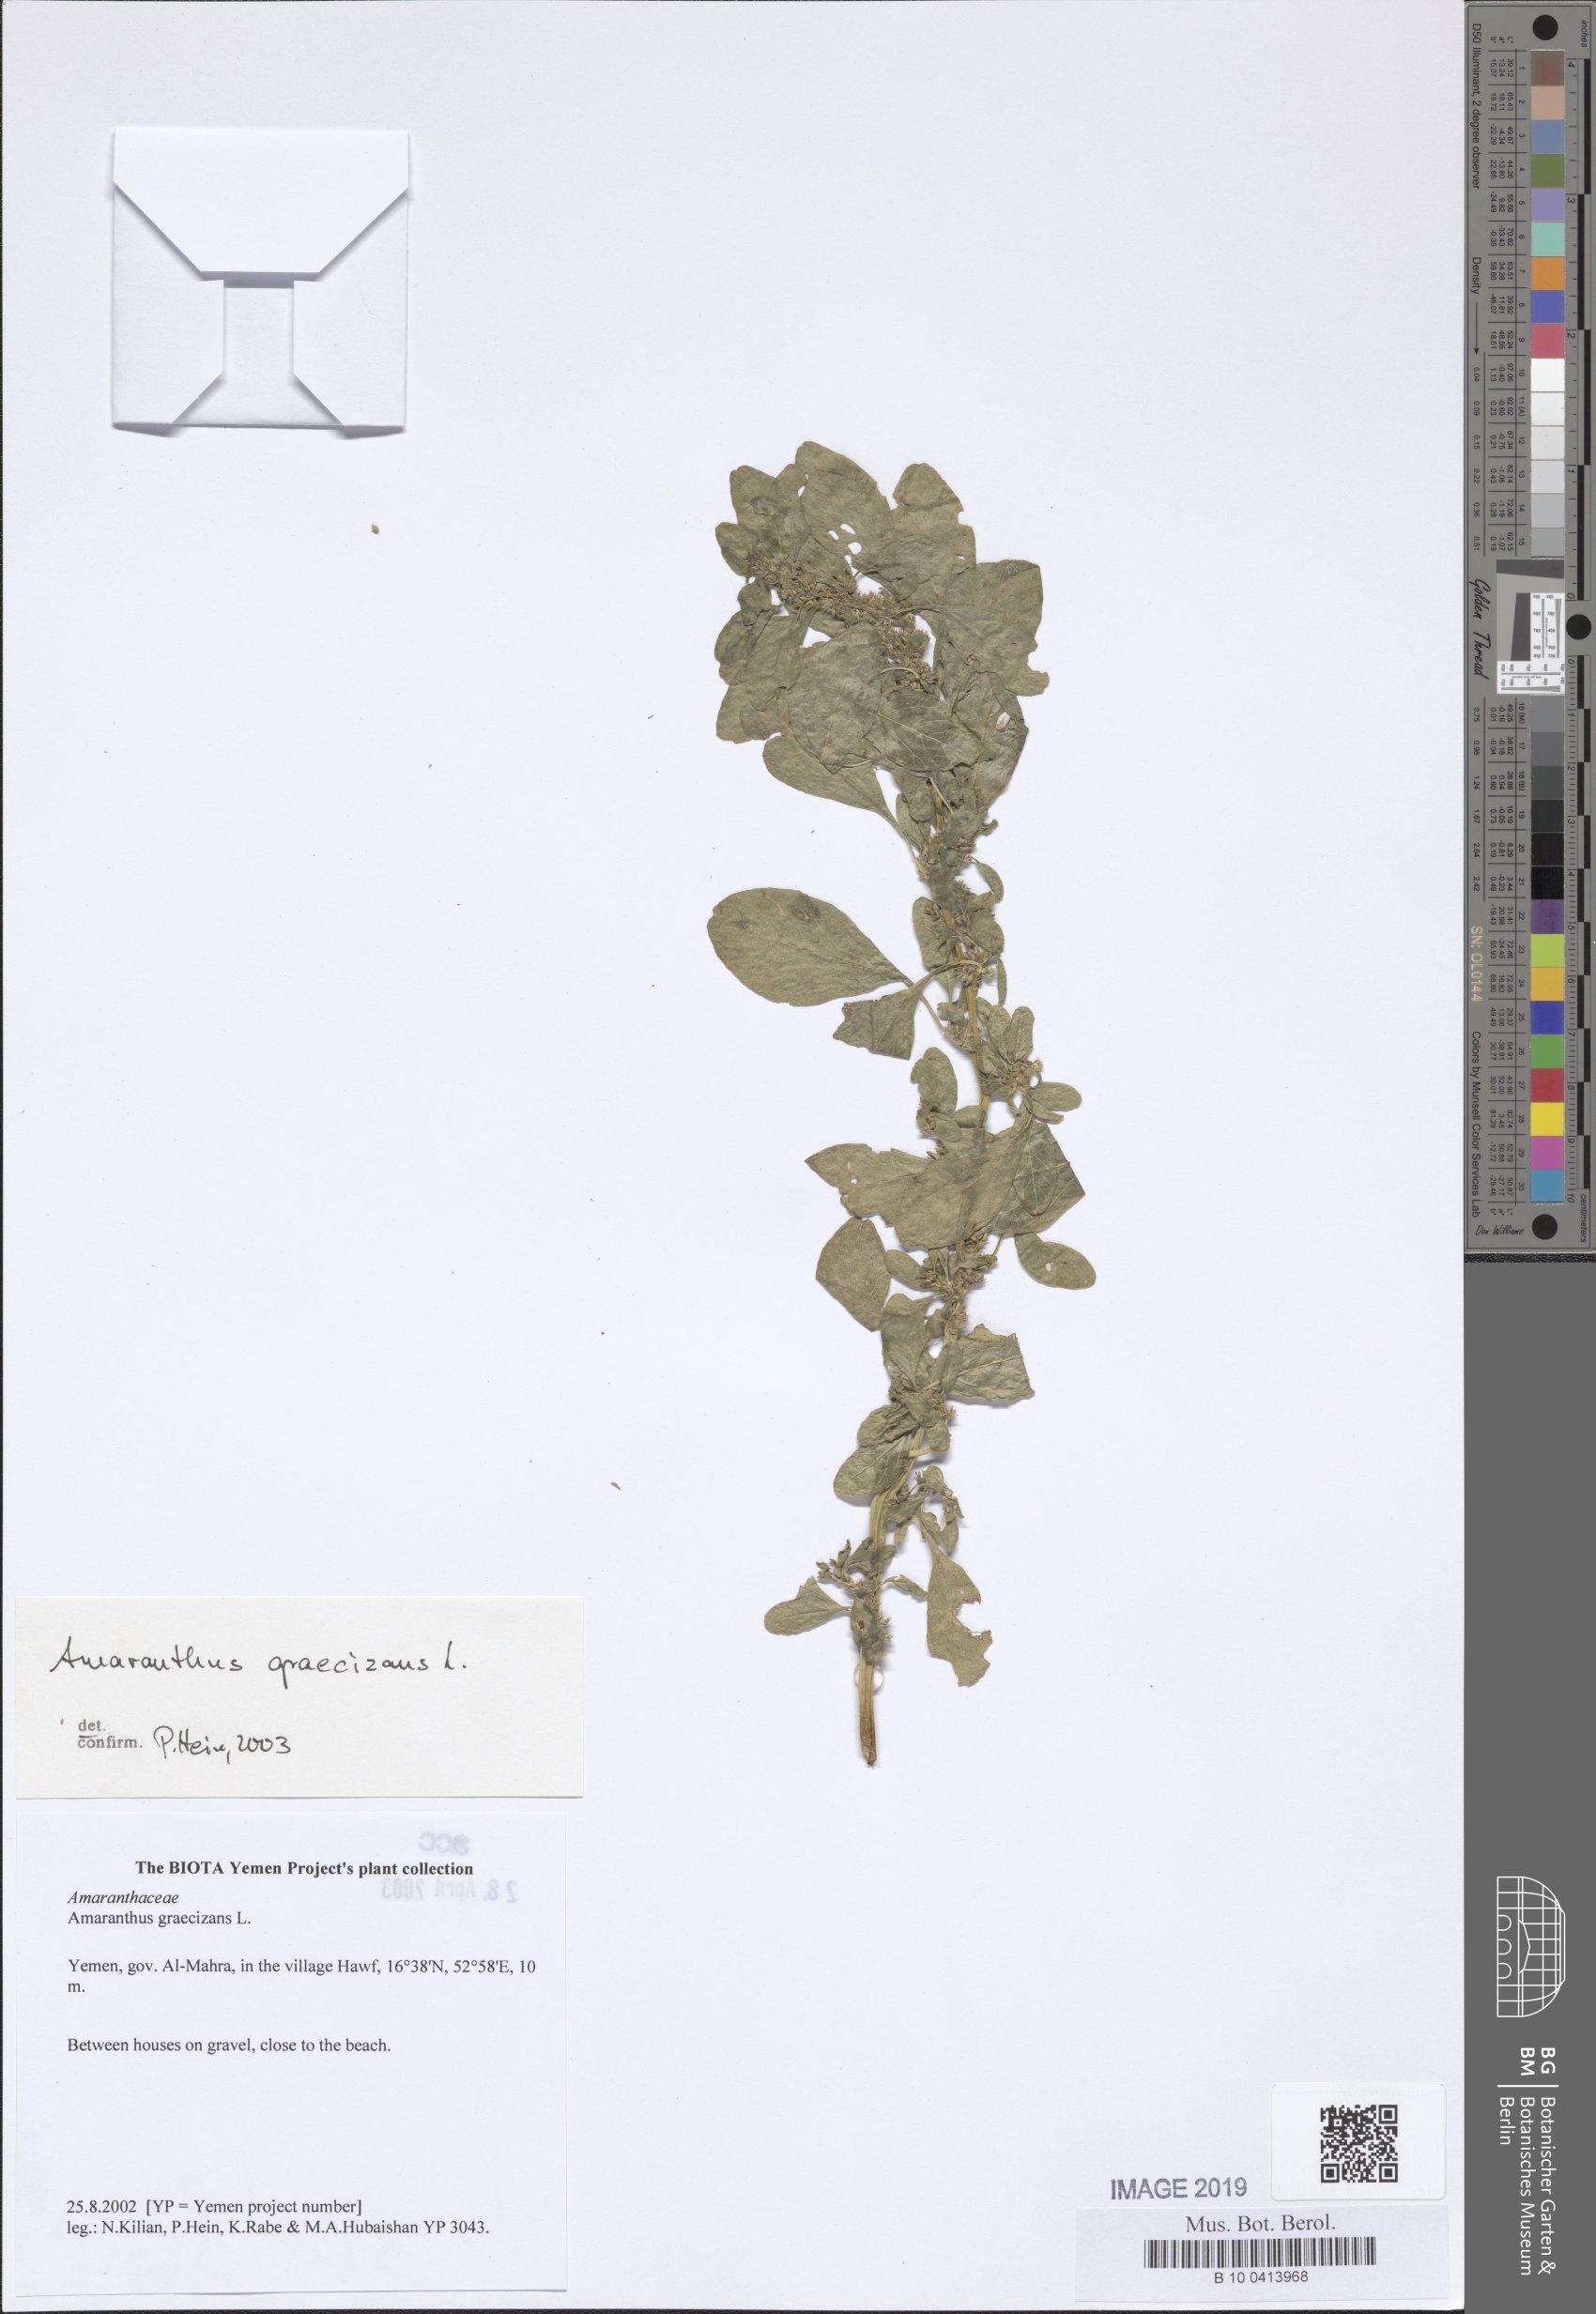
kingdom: Plantae
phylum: Tracheophyta
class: Magnoliopsida
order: Caryophyllales
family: Amaranthaceae
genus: Amaranthus
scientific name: Amaranthus graecizans
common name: Mediterranean amaranth
